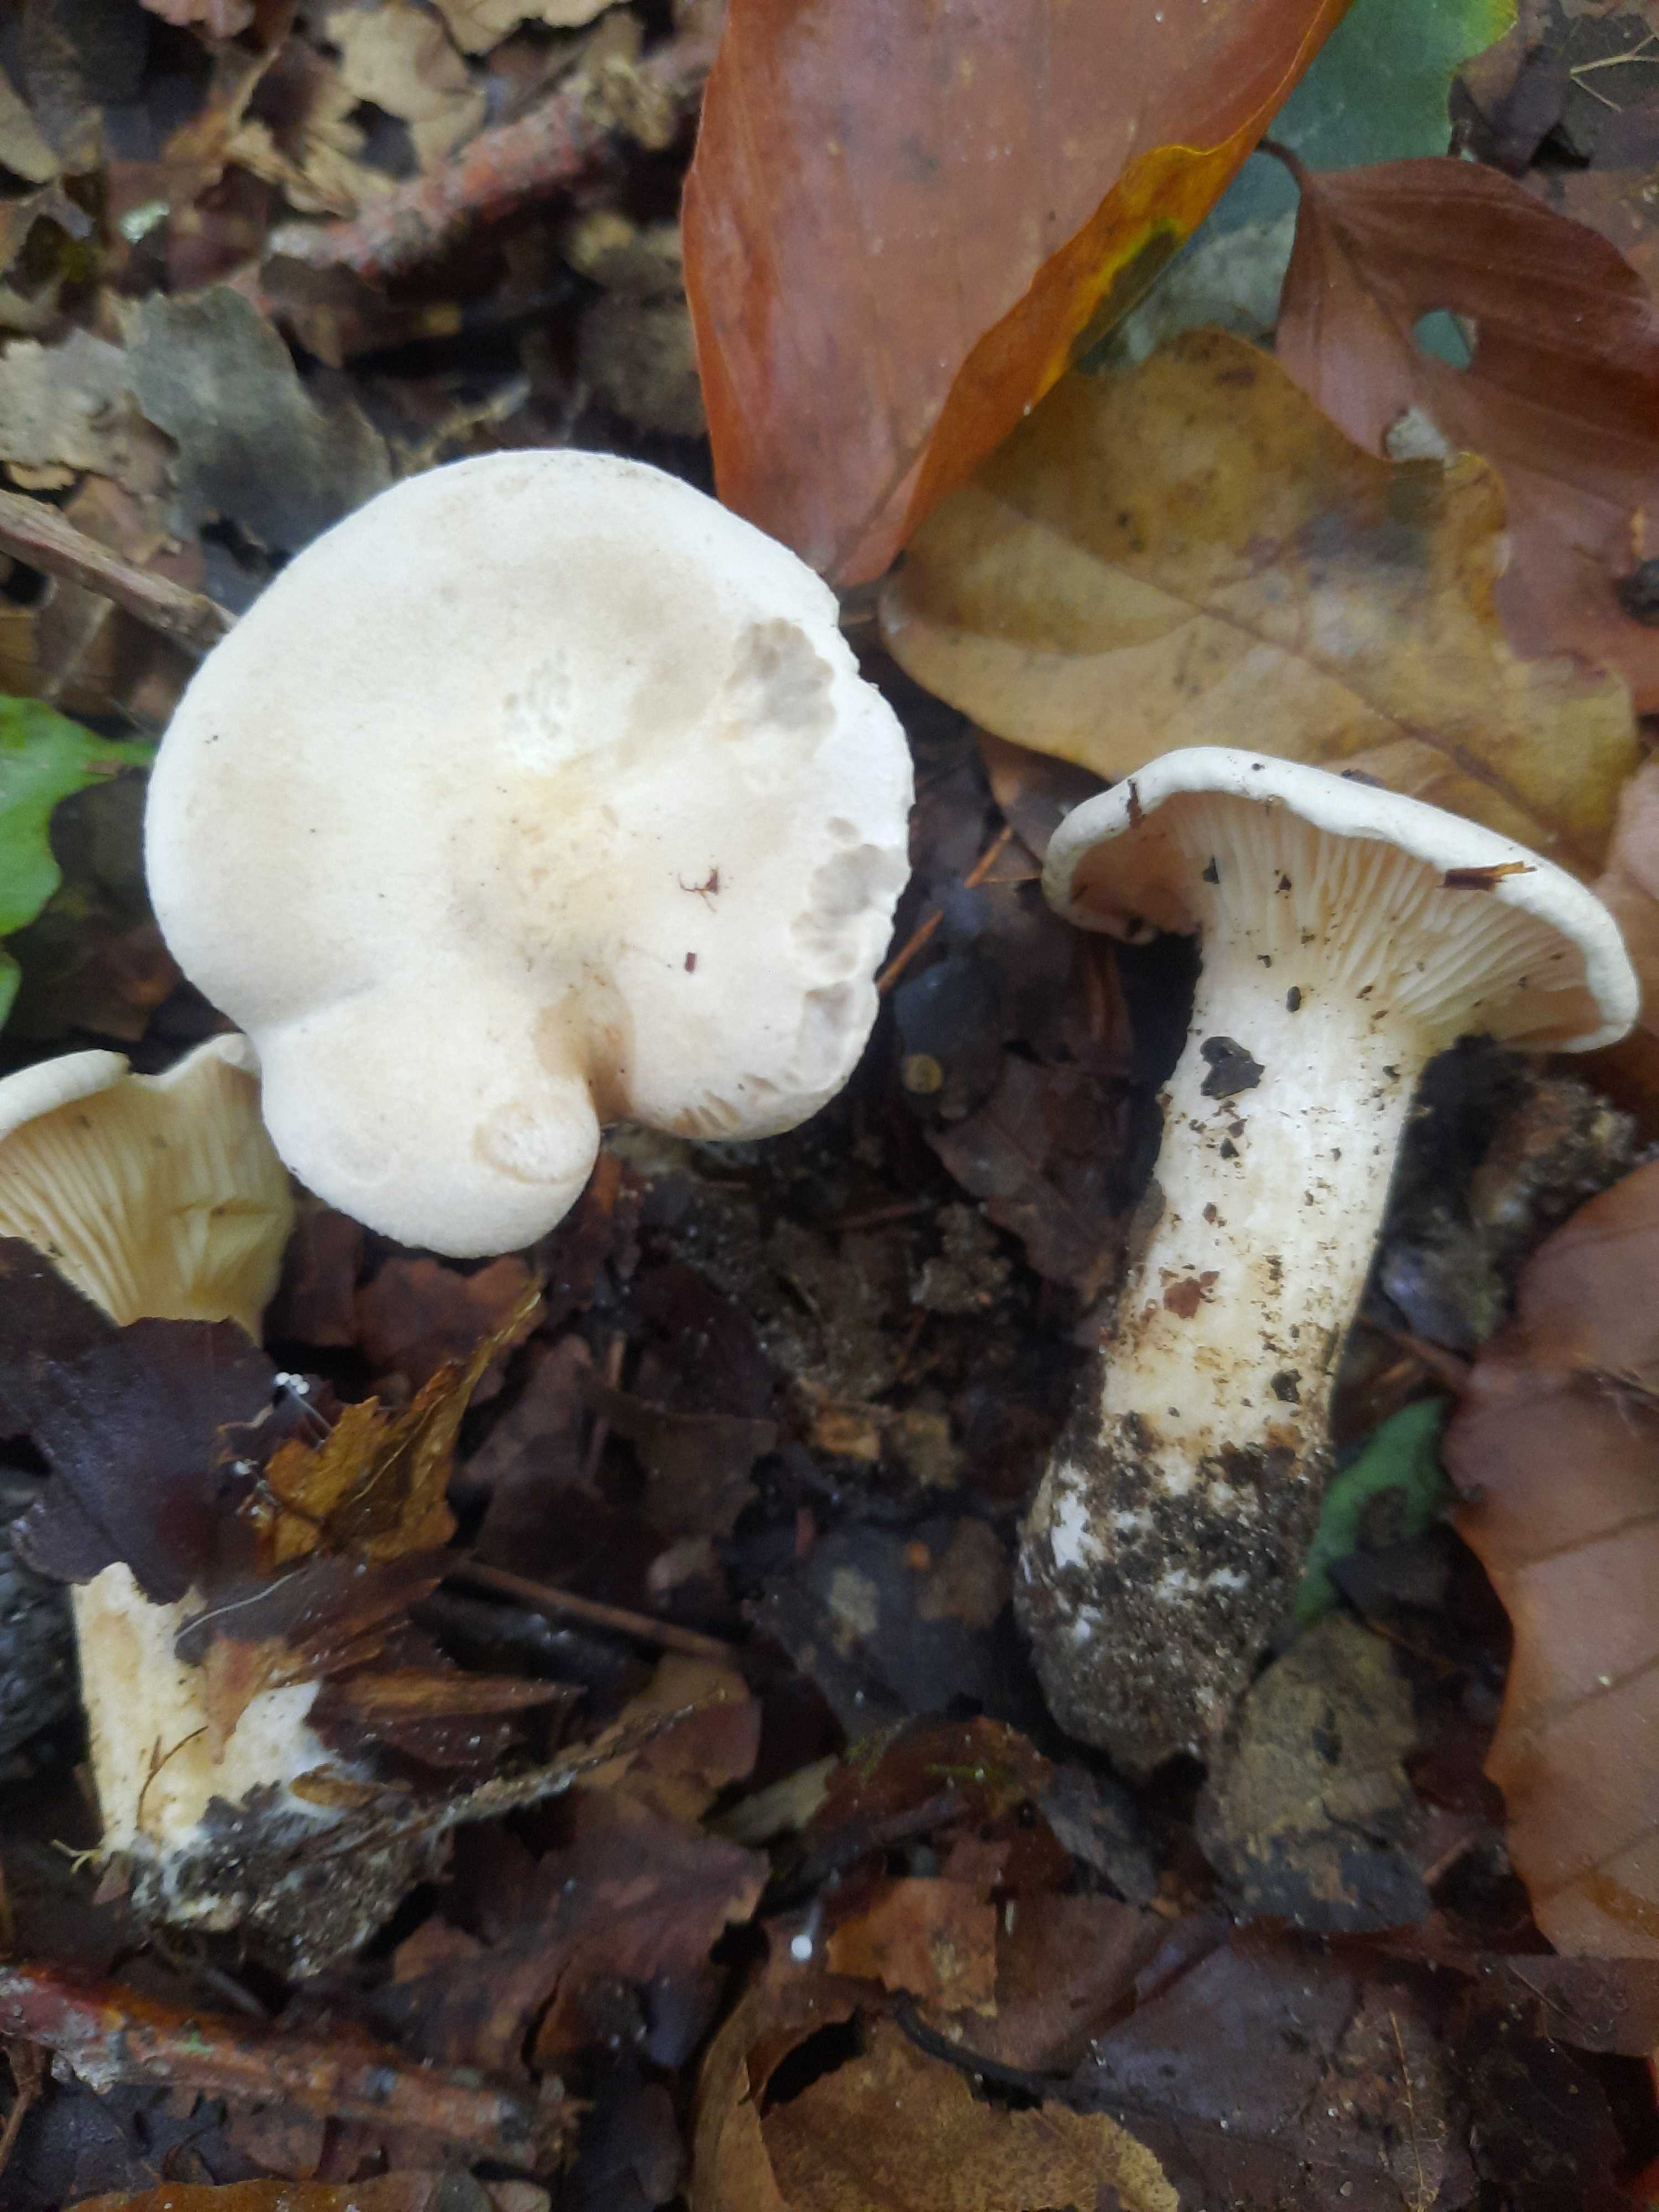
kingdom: Fungi
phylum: Basidiomycota
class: Agaricomycetes
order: Agaricales
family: Tricholomataceae
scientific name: Tricholomataceae
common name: ridderhatfamilien
